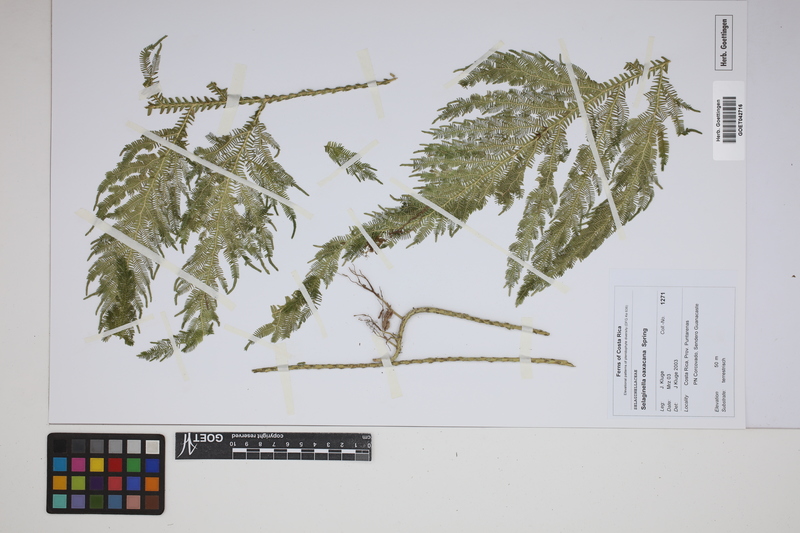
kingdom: Plantae
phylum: Tracheophyta
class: Lycopodiopsida
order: Selaginellales
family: Selaginellaceae
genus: Selaginella
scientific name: Selaginella oaxacana
